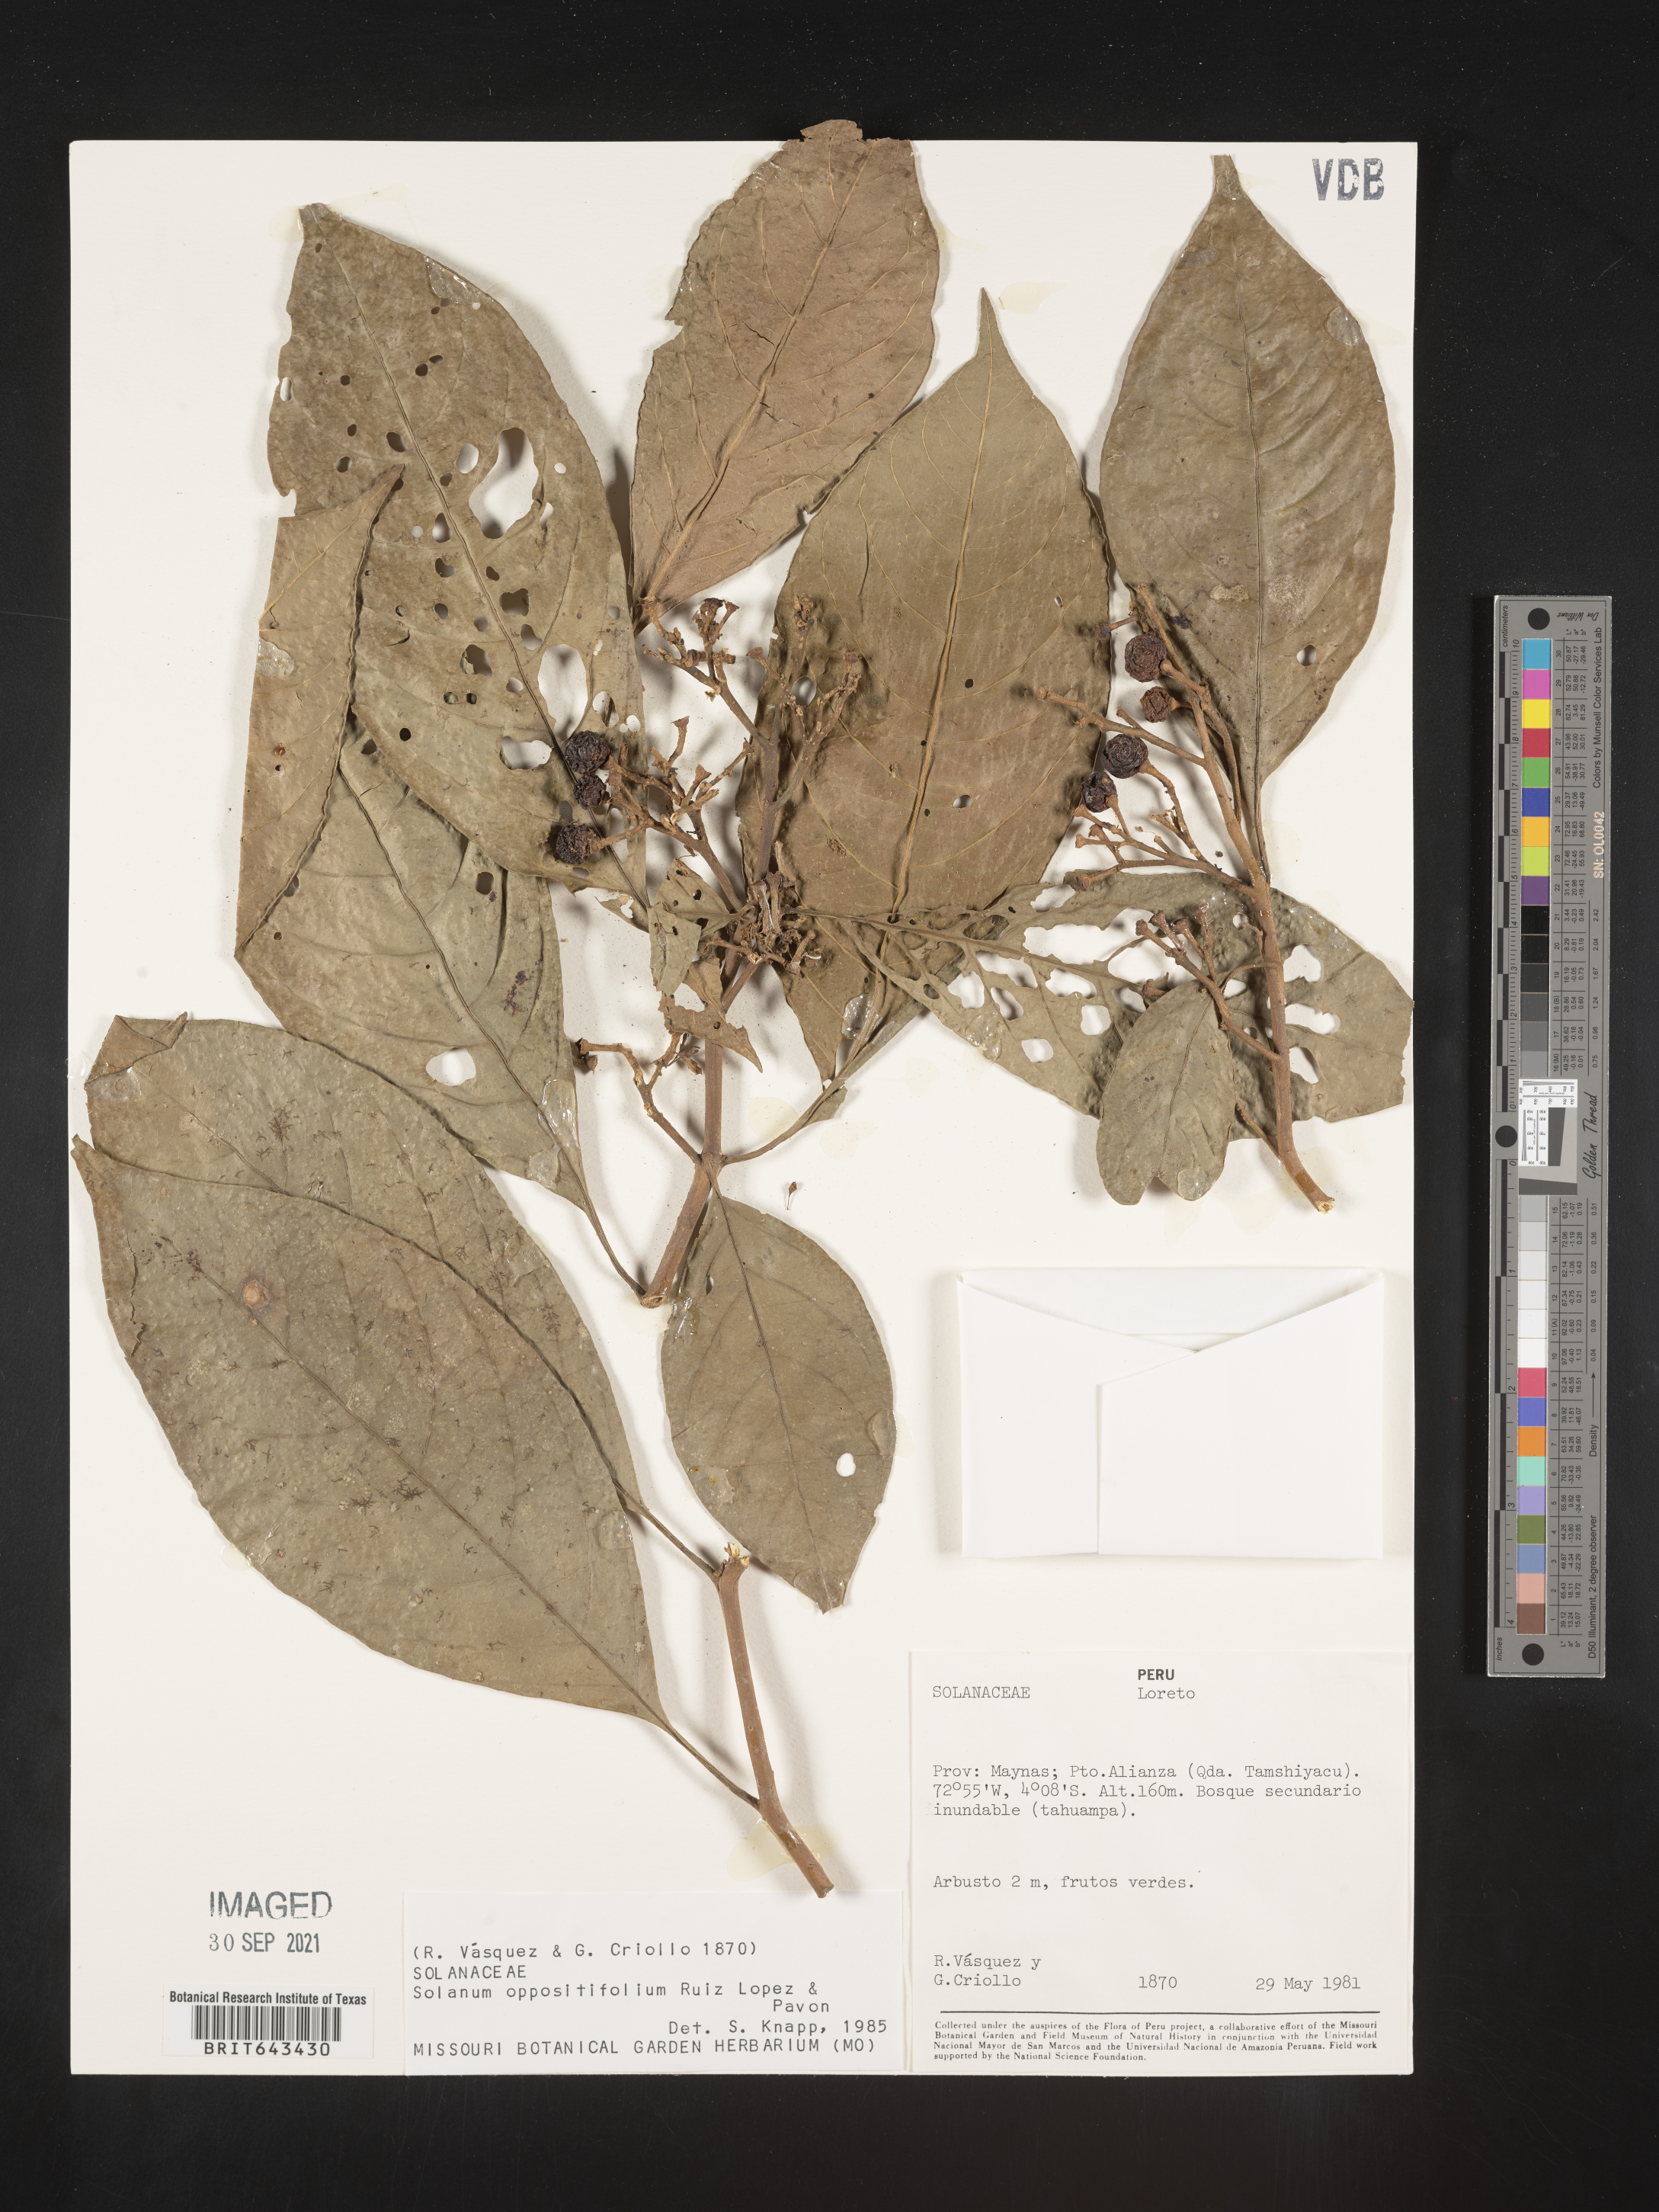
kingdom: Plantae
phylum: Tracheophyta
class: Magnoliopsida
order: Solanales
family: Solanaceae
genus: Solanum
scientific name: Solanum
